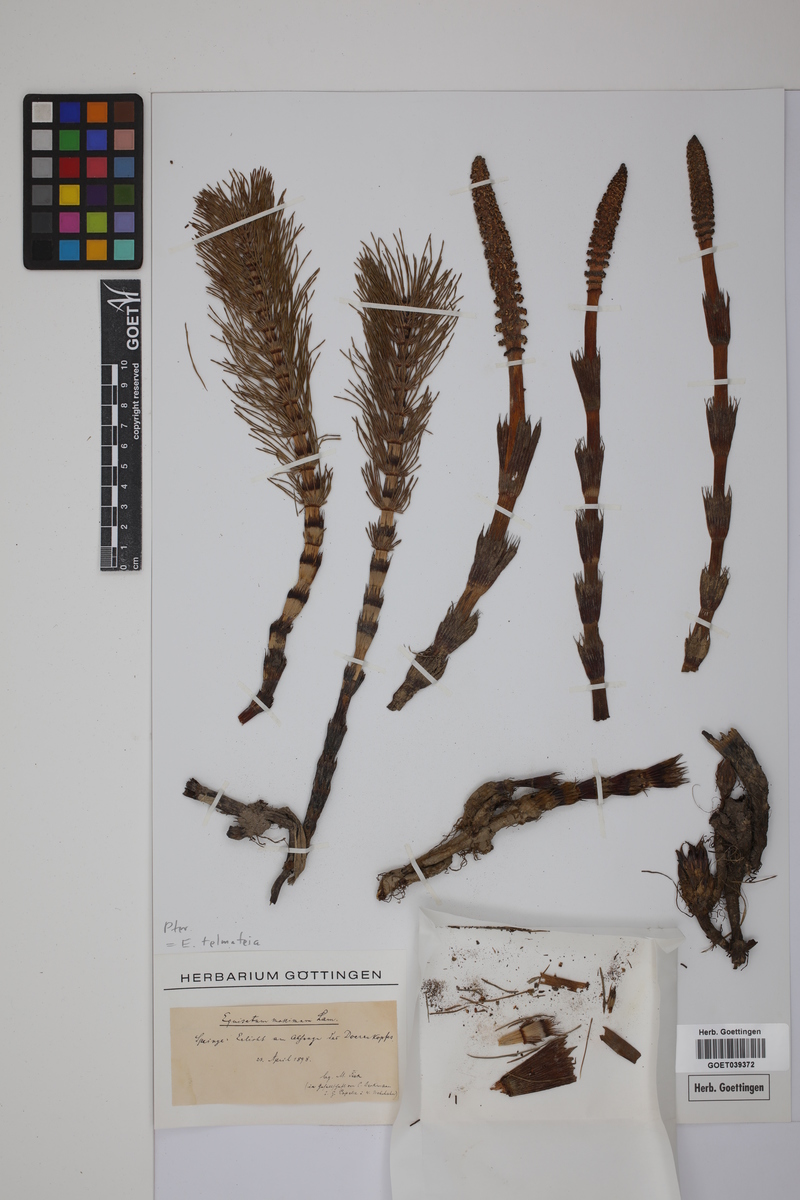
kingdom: Plantae
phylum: Tracheophyta
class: Polypodiopsida
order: Equisetales
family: Equisetaceae
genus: Equisetum
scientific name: Equisetum telmateia
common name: Great horsetail
